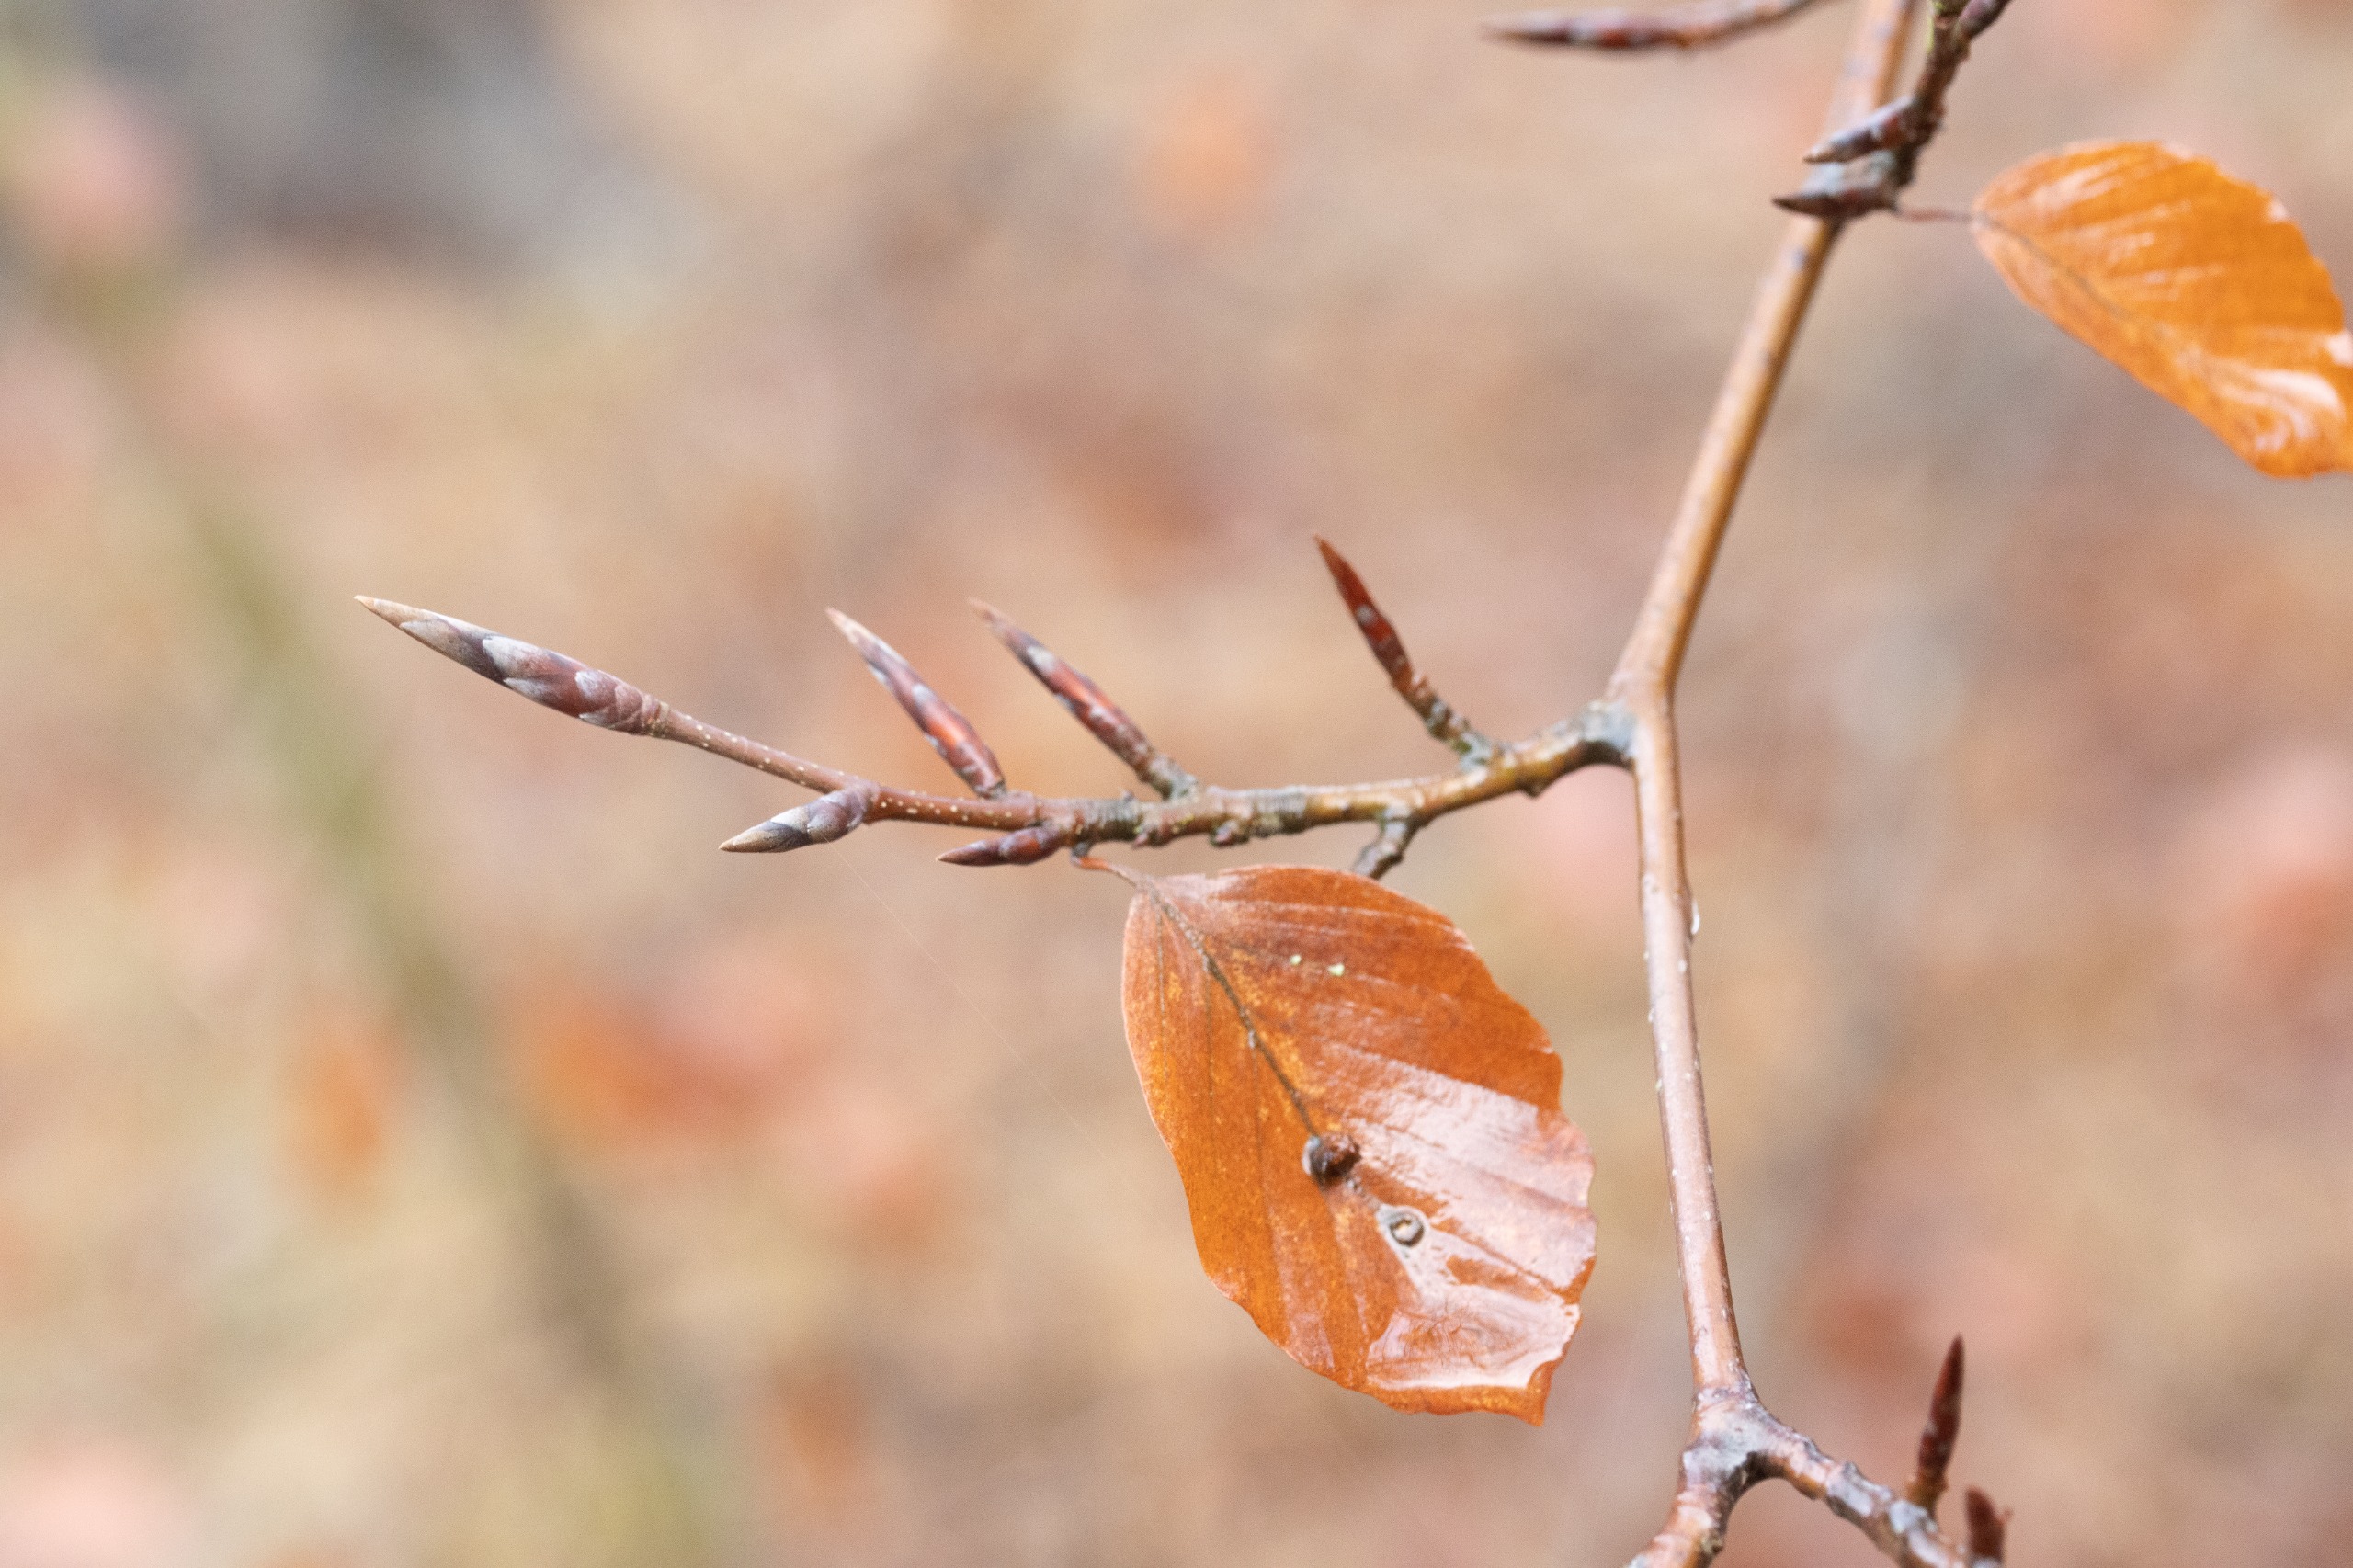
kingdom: Plantae
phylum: Tracheophyta
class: Magnoliopsida
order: Fagales
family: Fagaceae
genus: Fagus
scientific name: Fagus sylvatica
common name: Bøg
